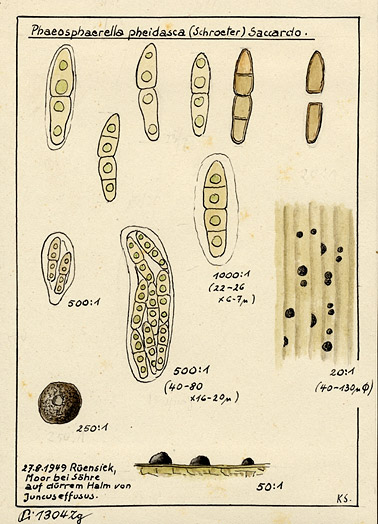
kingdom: Plantae
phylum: Tracheophyta
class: Liliopsida
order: Poales
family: Juncaceae
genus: Juncus
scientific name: Juncus effusus
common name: Soft rush
